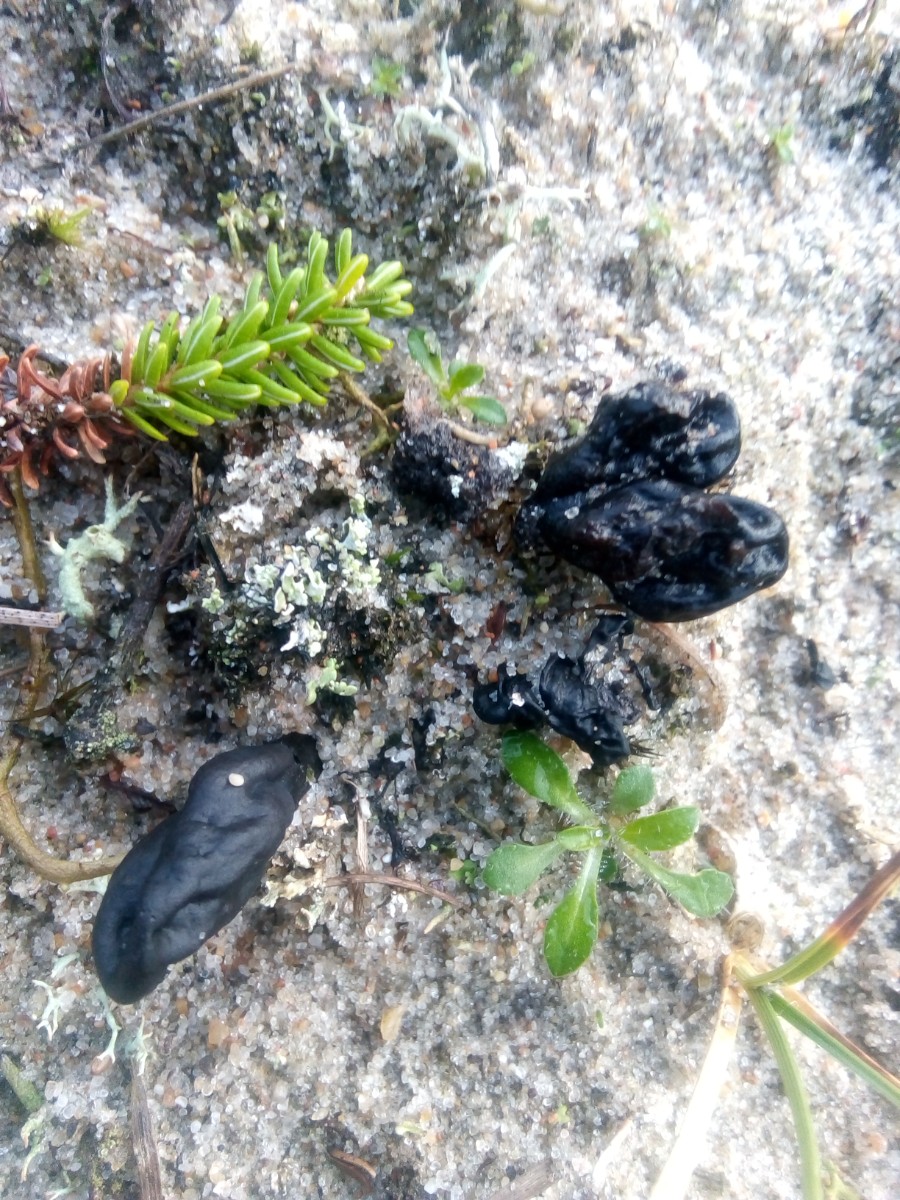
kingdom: Fungi
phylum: Ascomycota
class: Geoglossomycetes
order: Geoglossales
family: Geoglossaceae
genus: Sabuloglossum
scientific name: Sabuloglossum arenarium
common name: klit-jordtunge
